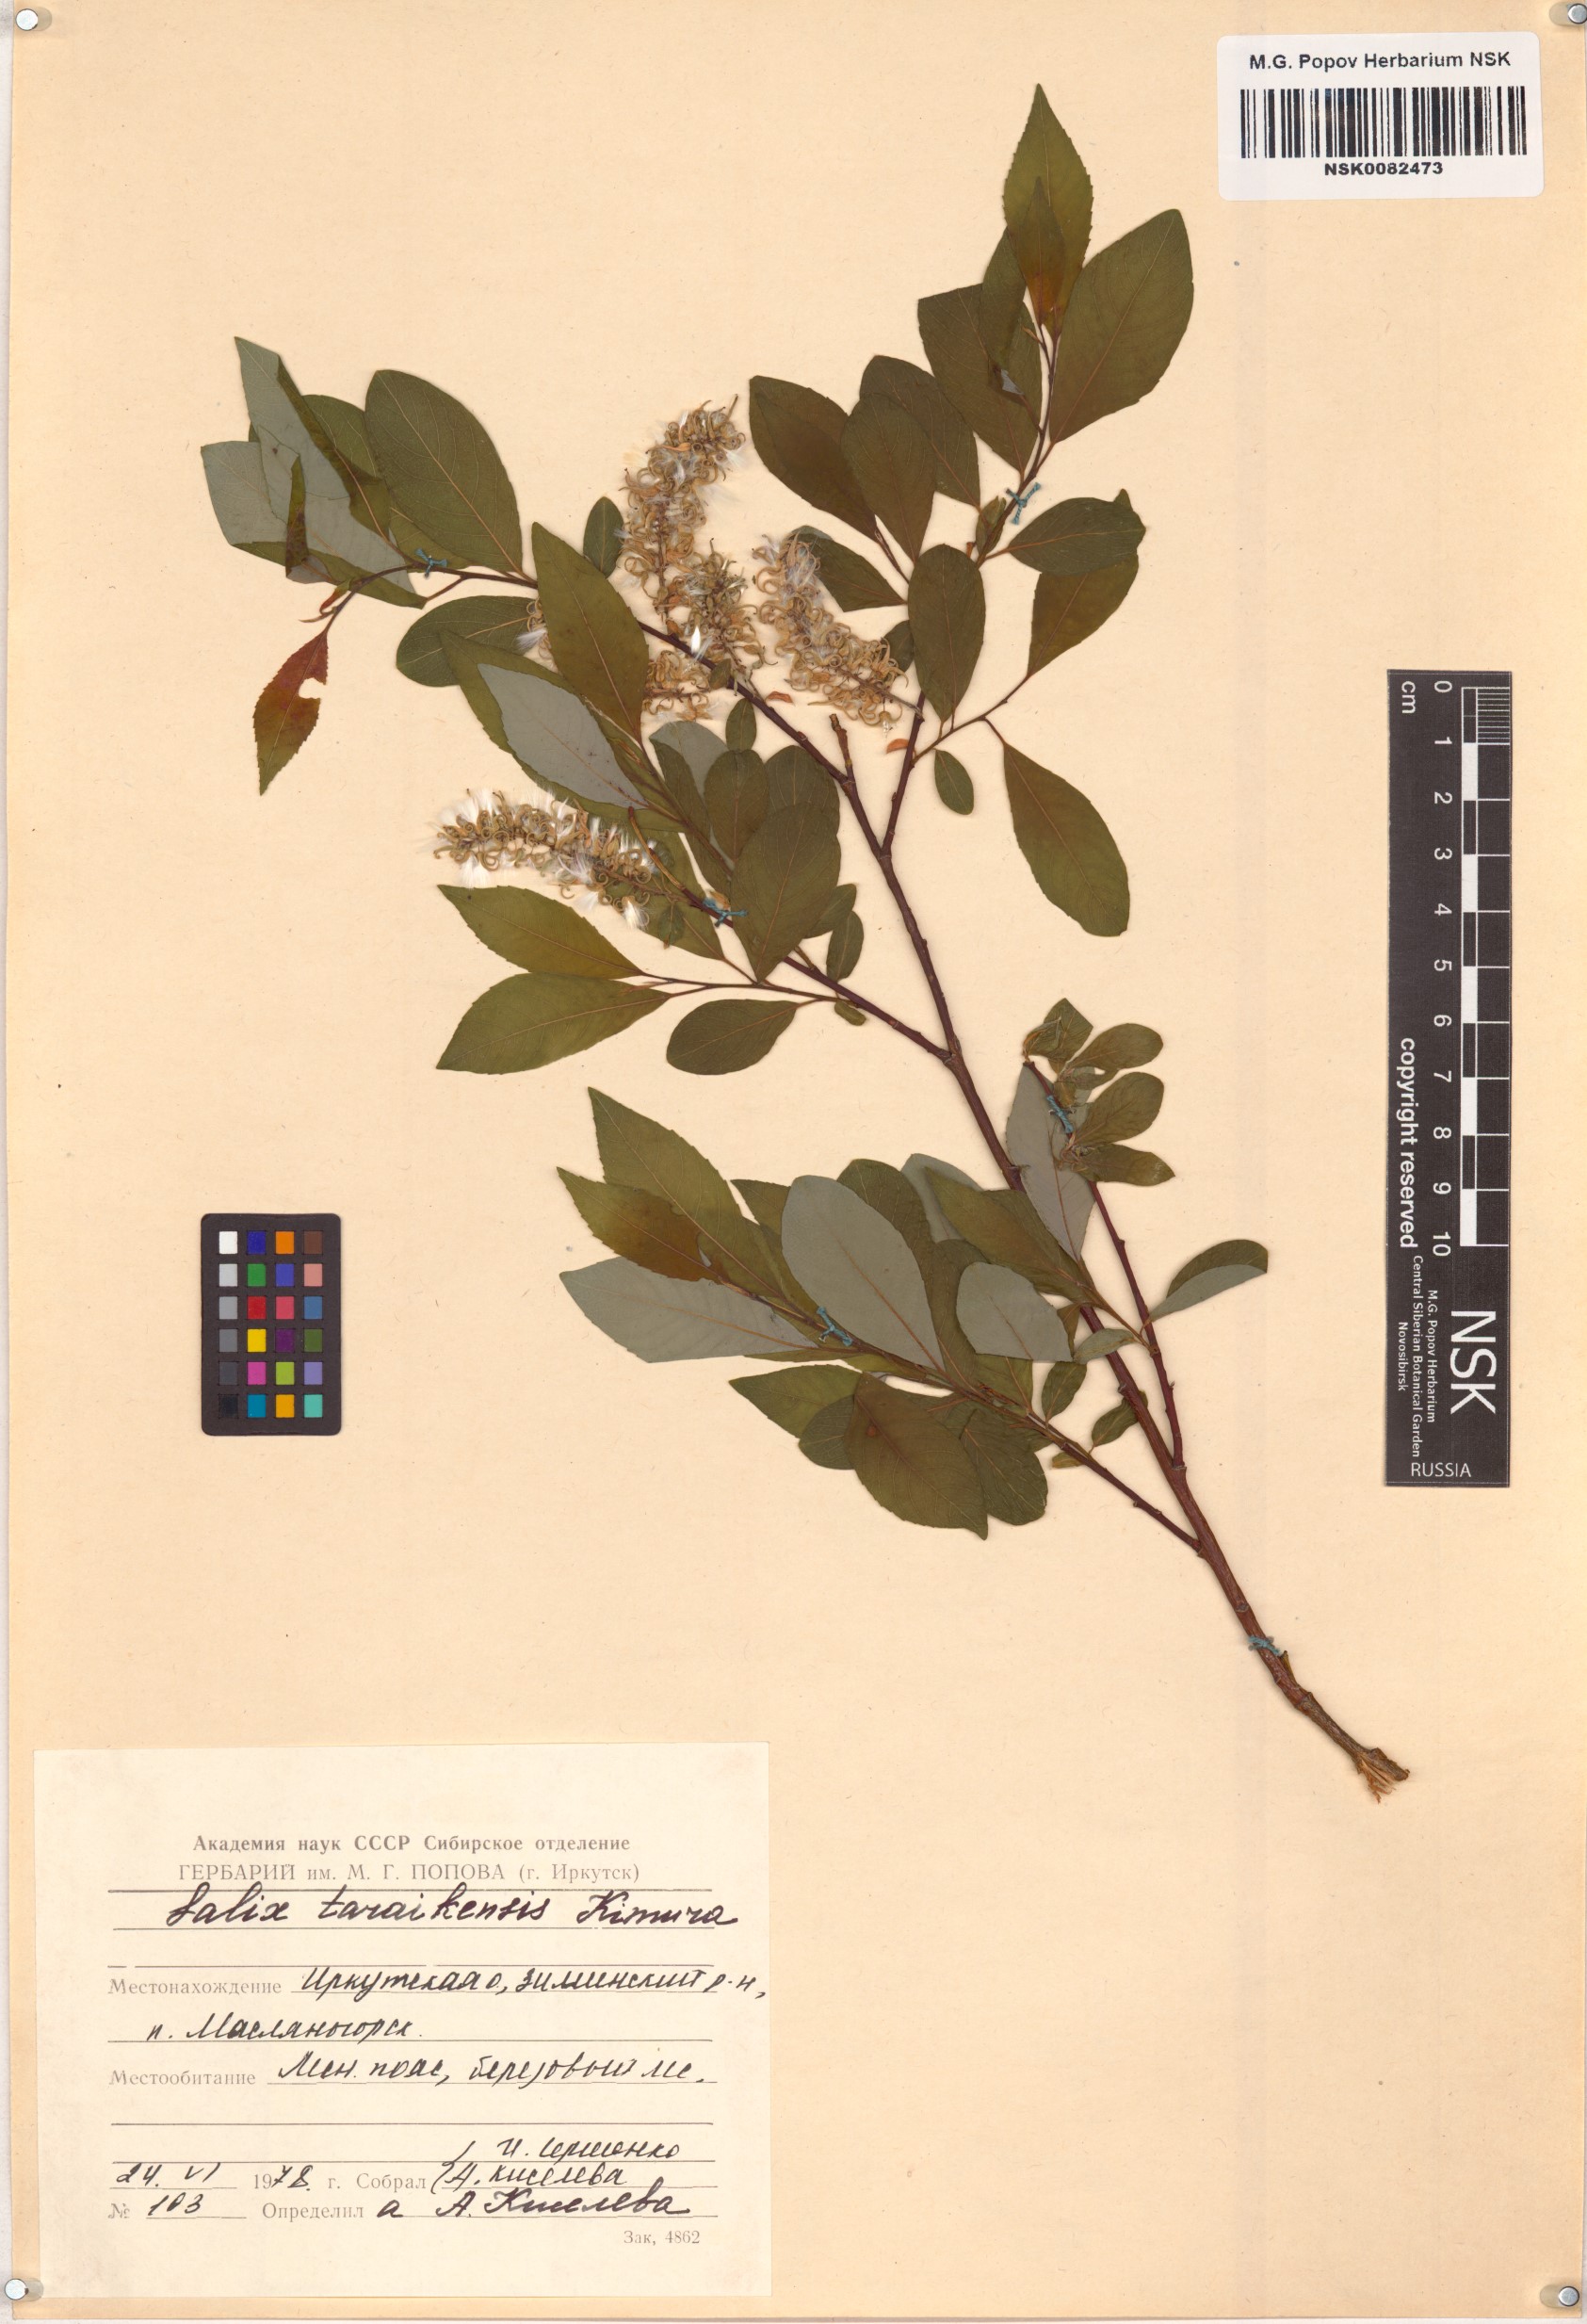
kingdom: Plantae
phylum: Tracheophyta
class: Magnoliopsida
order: Malpighiales
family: Salicaceae
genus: Salix
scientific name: Salix taraikensis
